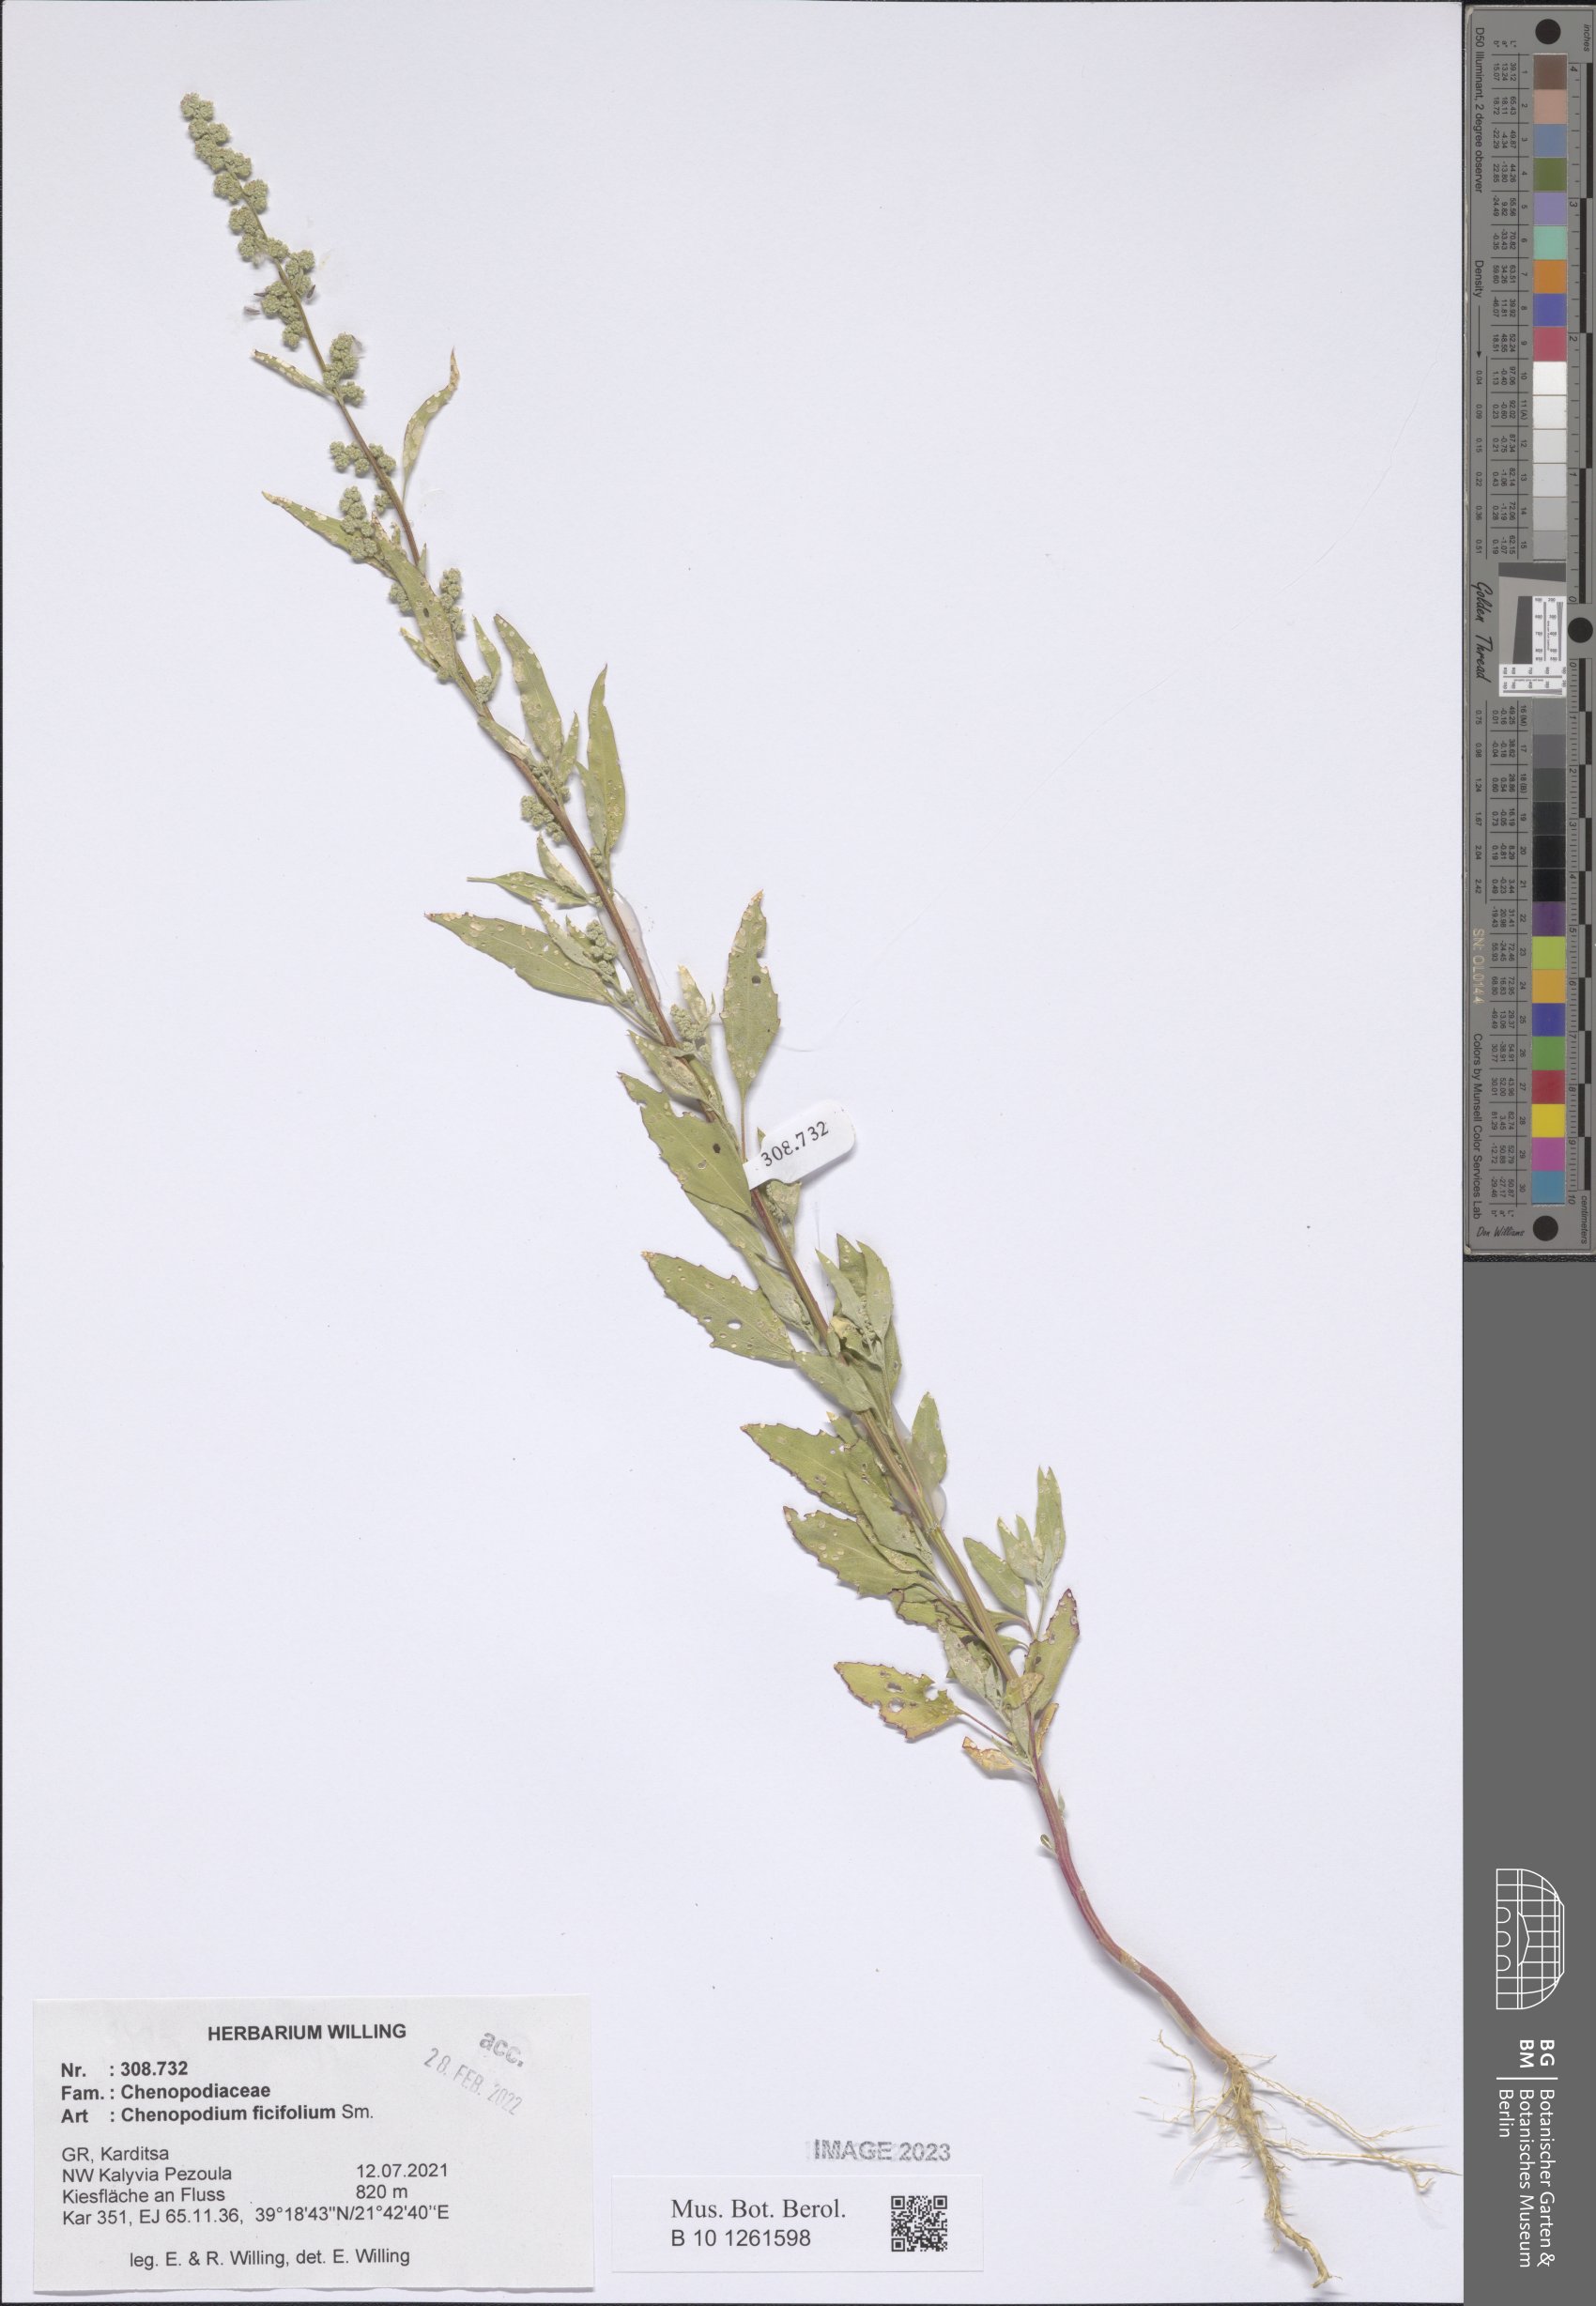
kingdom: Plantae
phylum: Tracheophyta
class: Magnoliopsida
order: Caryophyllales
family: Amaranthaceae
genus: Chenopodium
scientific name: Chenopodium ficifolium
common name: Fig-leaved goosefoot
